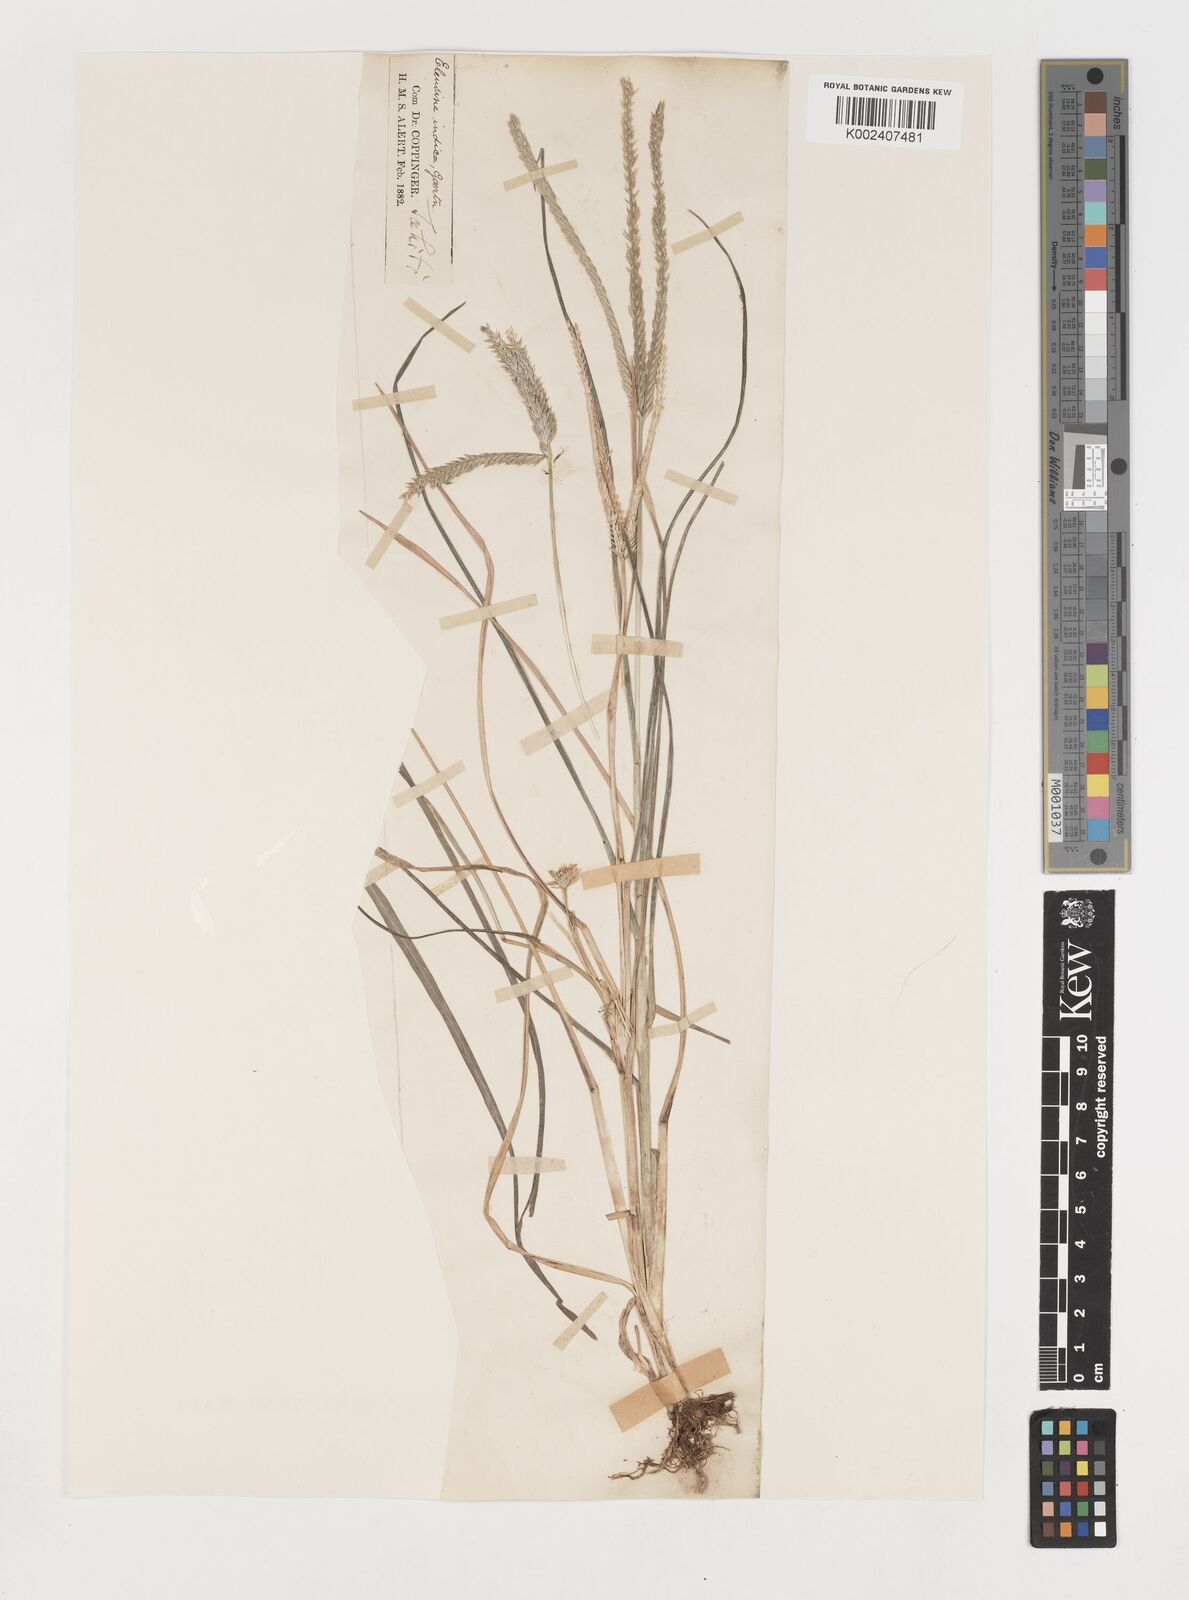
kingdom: Plantae
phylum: Tracheophyta
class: Liliopsida
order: Poales
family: Poaceae
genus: Eleusine
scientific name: Eleusine indica
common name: Yard-grass
